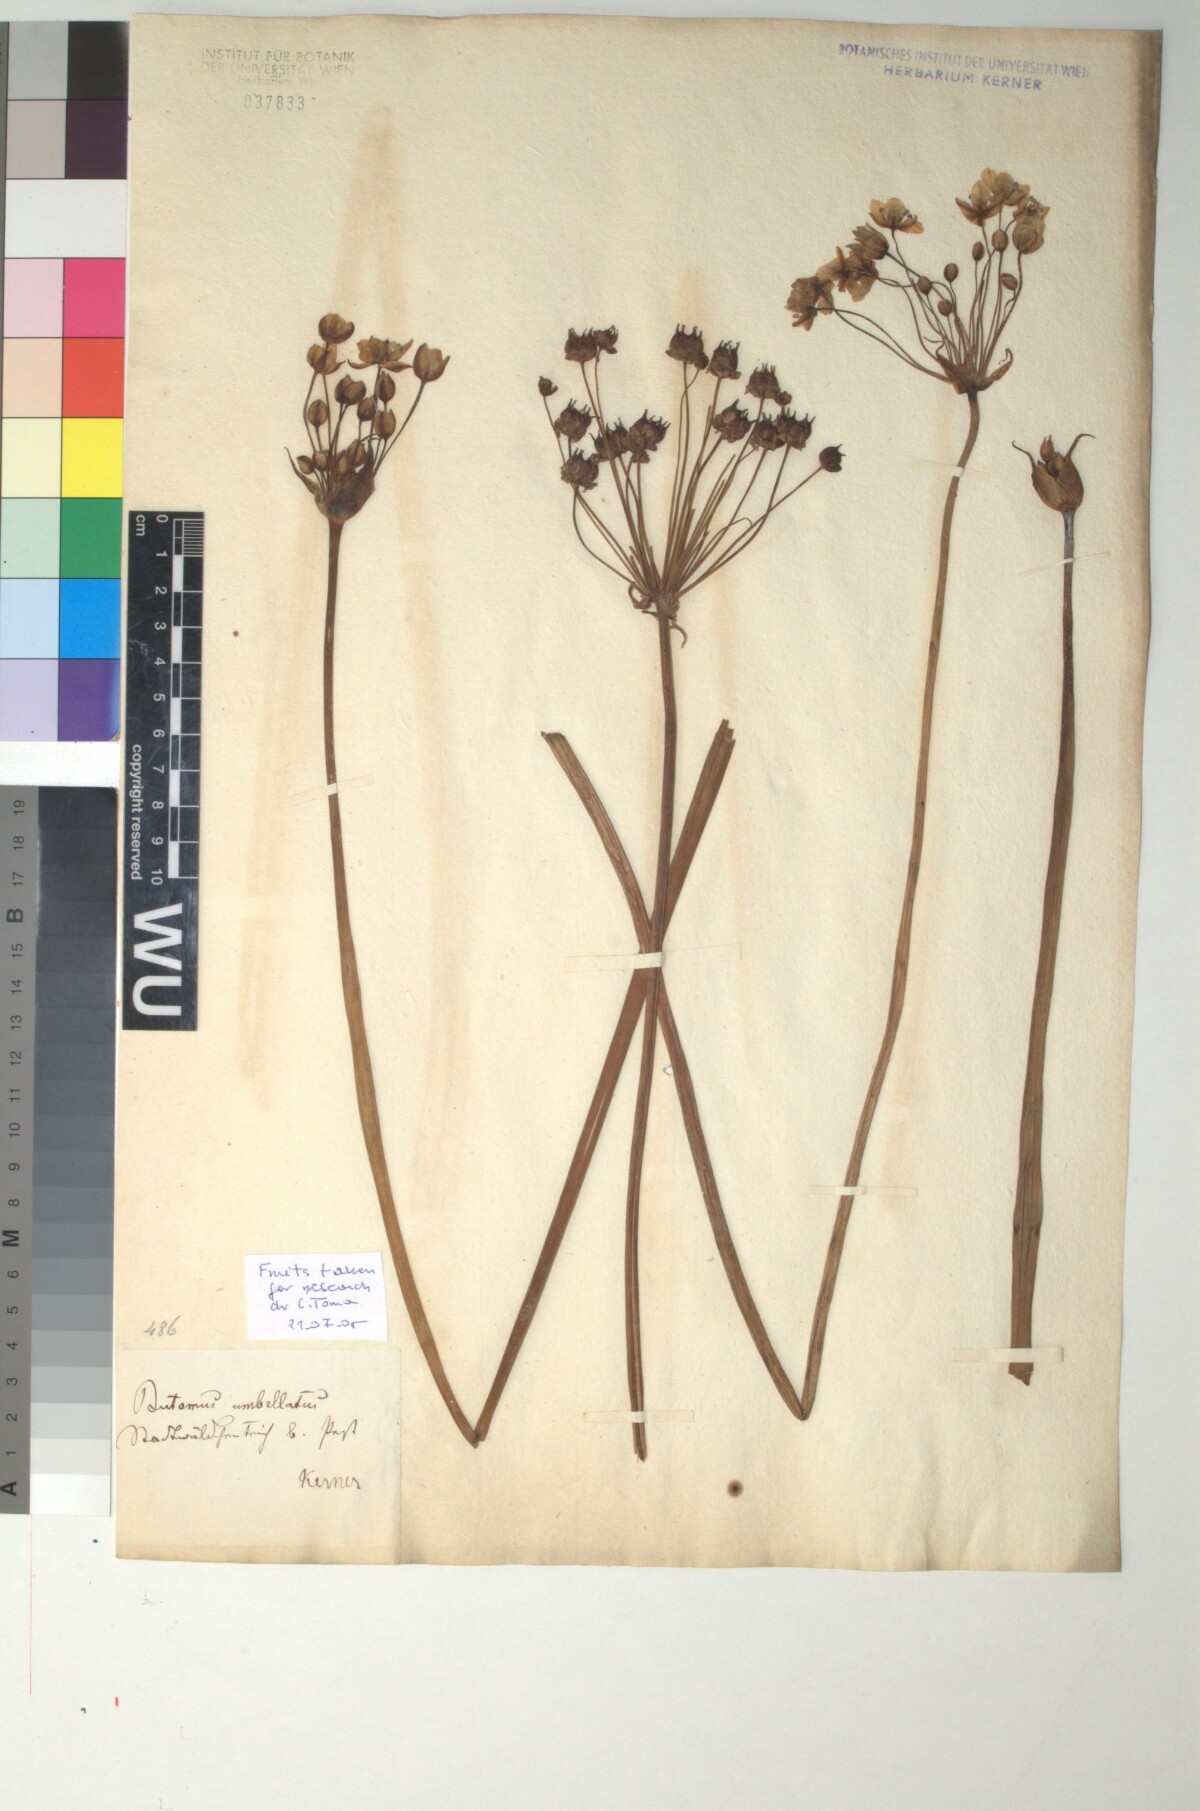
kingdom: Plantae
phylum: Tracheophyta
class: Liliopsida
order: Alismatales
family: Butomaceae
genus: Butomus
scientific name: Butomus umbellatus
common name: Flowering-rush
